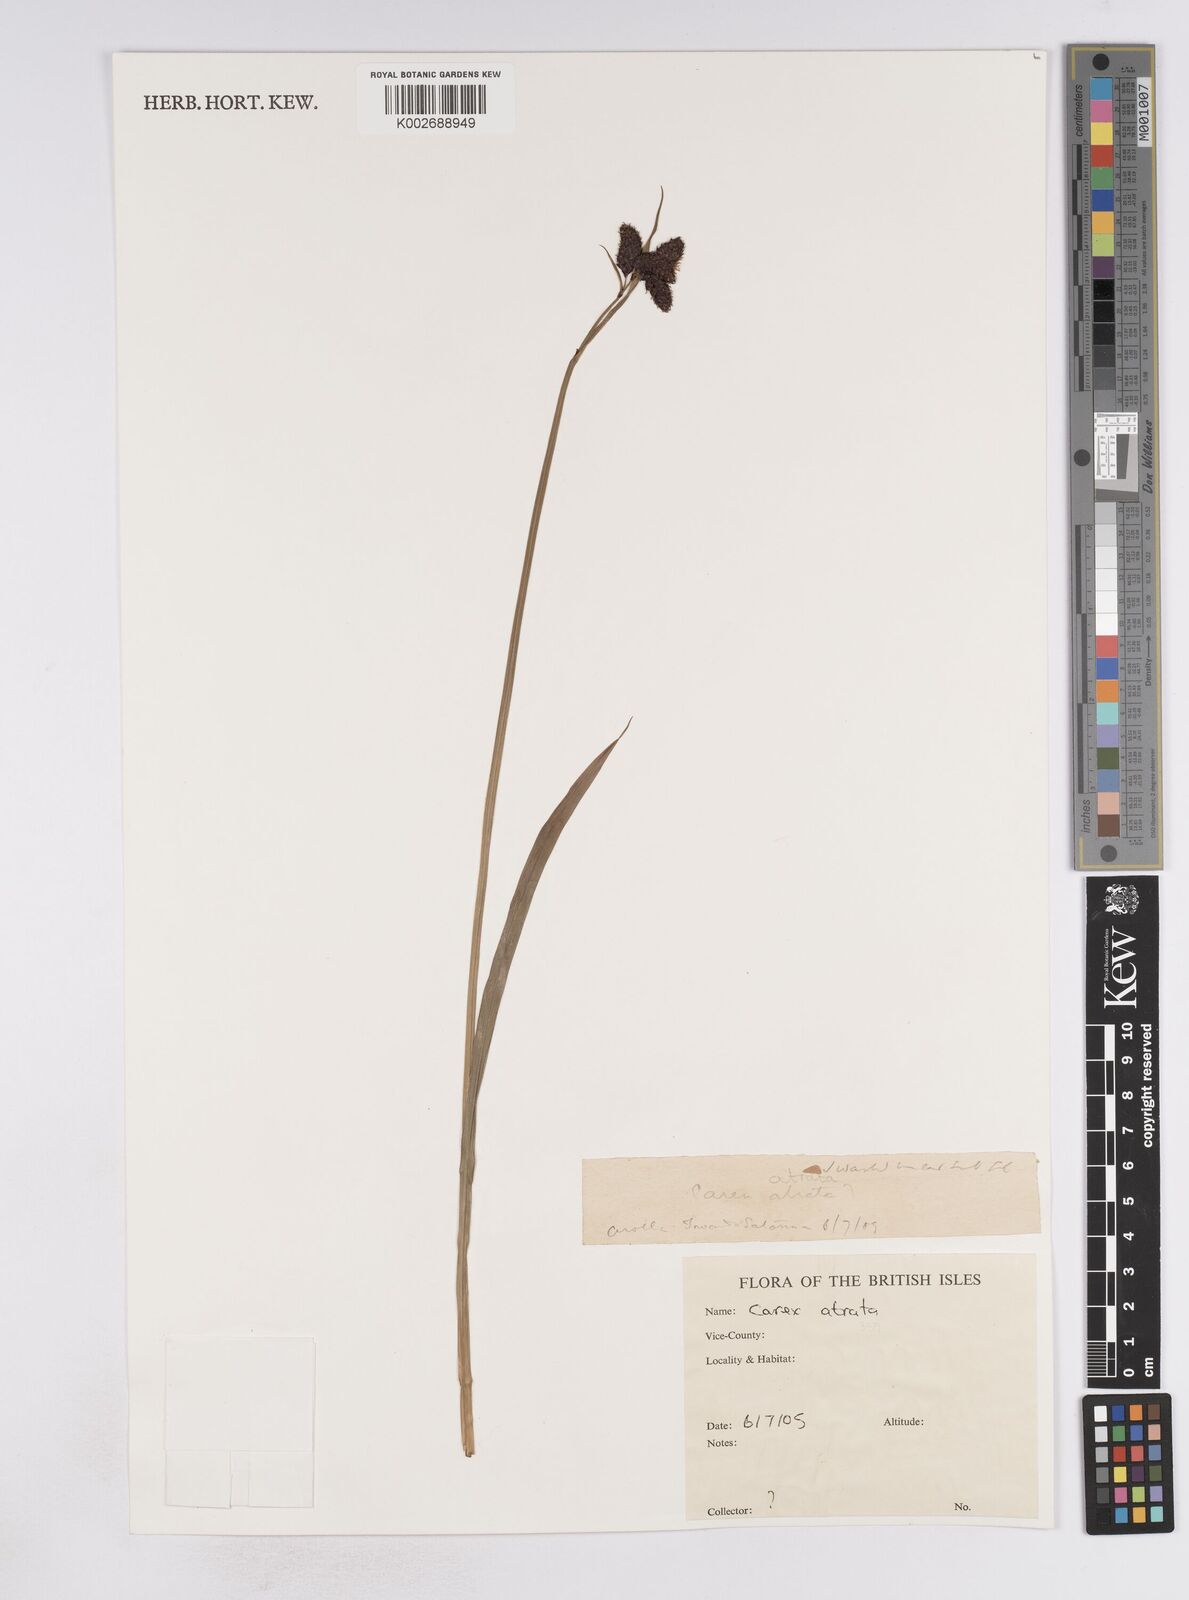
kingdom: Plantae
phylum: Tracheophyta
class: Liliopsida
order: Poales
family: Cyperaceae
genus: Carex
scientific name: Carex atrata
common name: Black alpine sedge
